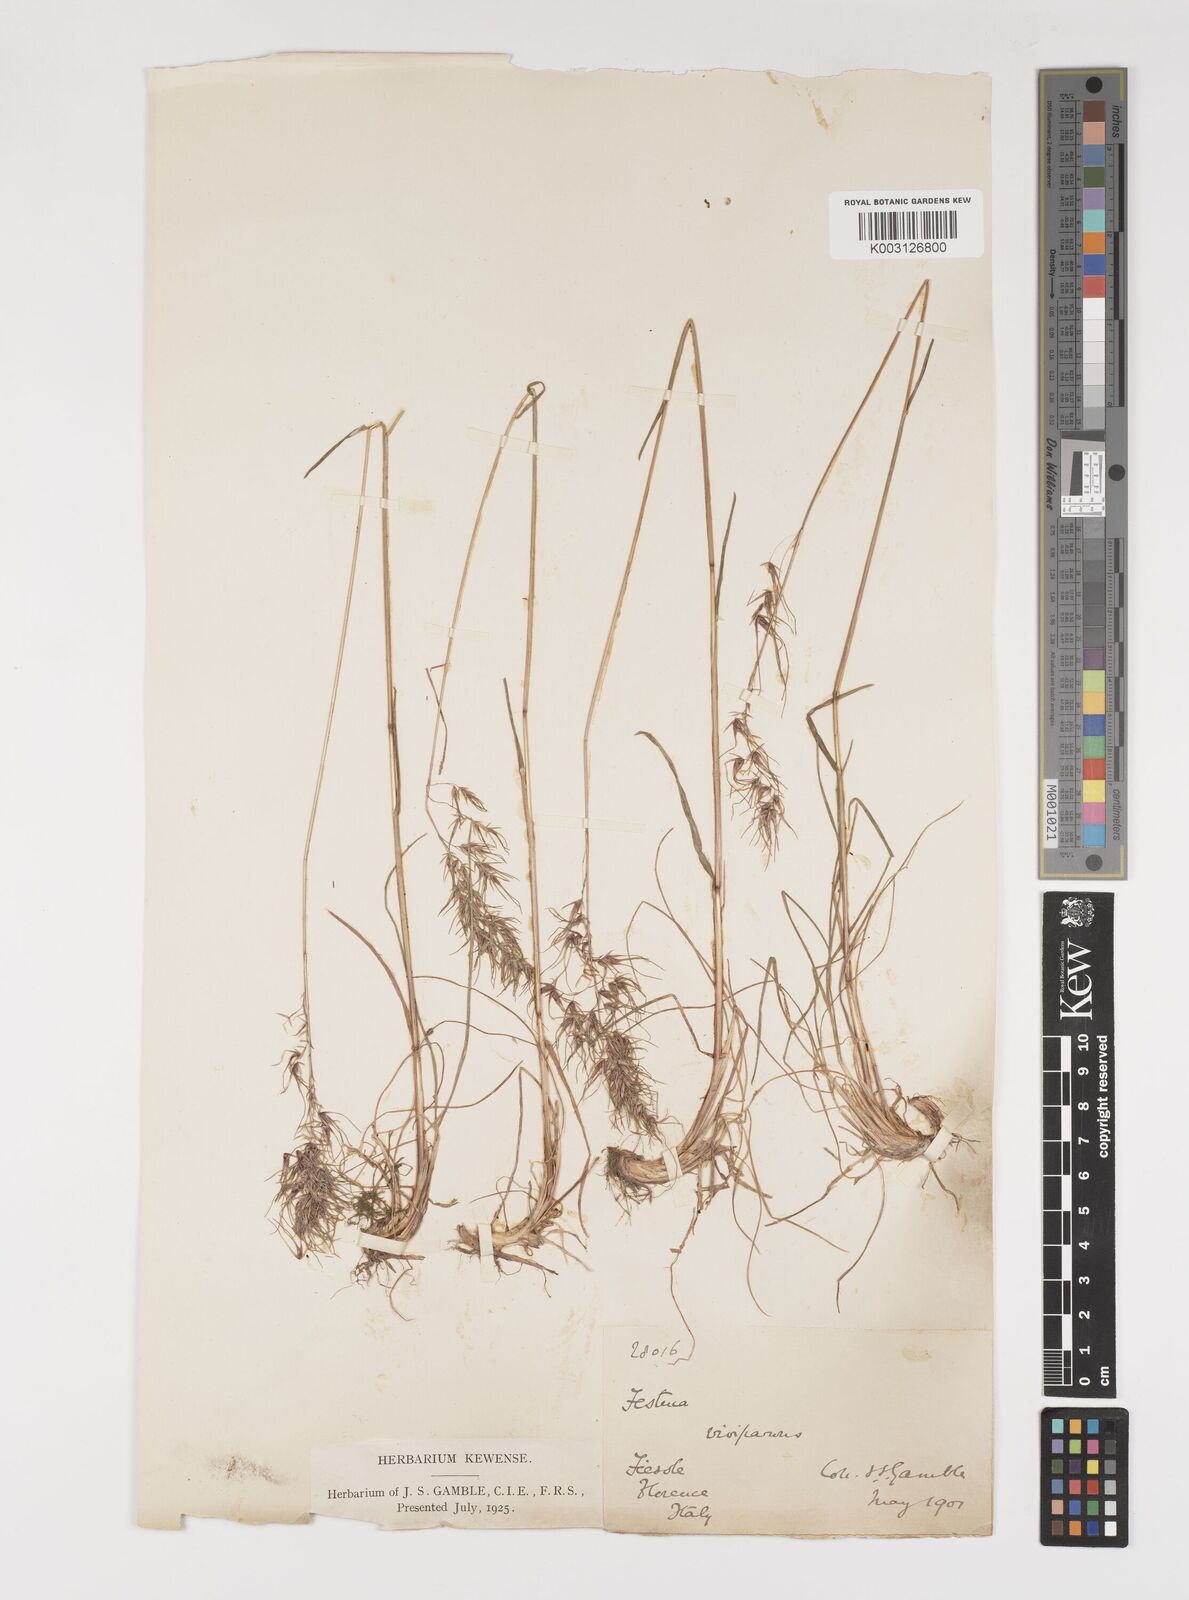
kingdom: Plantae
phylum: Tracheophyta
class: Liliopsida
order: Poales
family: Poaceae
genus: Poa
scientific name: Poa bulbosa
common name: Bulbous bluegrass
